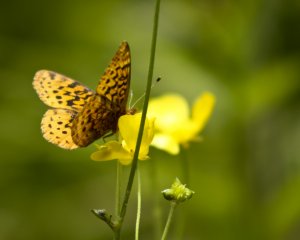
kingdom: Animalia
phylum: Arthropoda
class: Insecta
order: Lepidoptera
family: Nymphalidae
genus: Clossiana
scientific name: Clossiana toddi
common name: Meadow Fritillary
